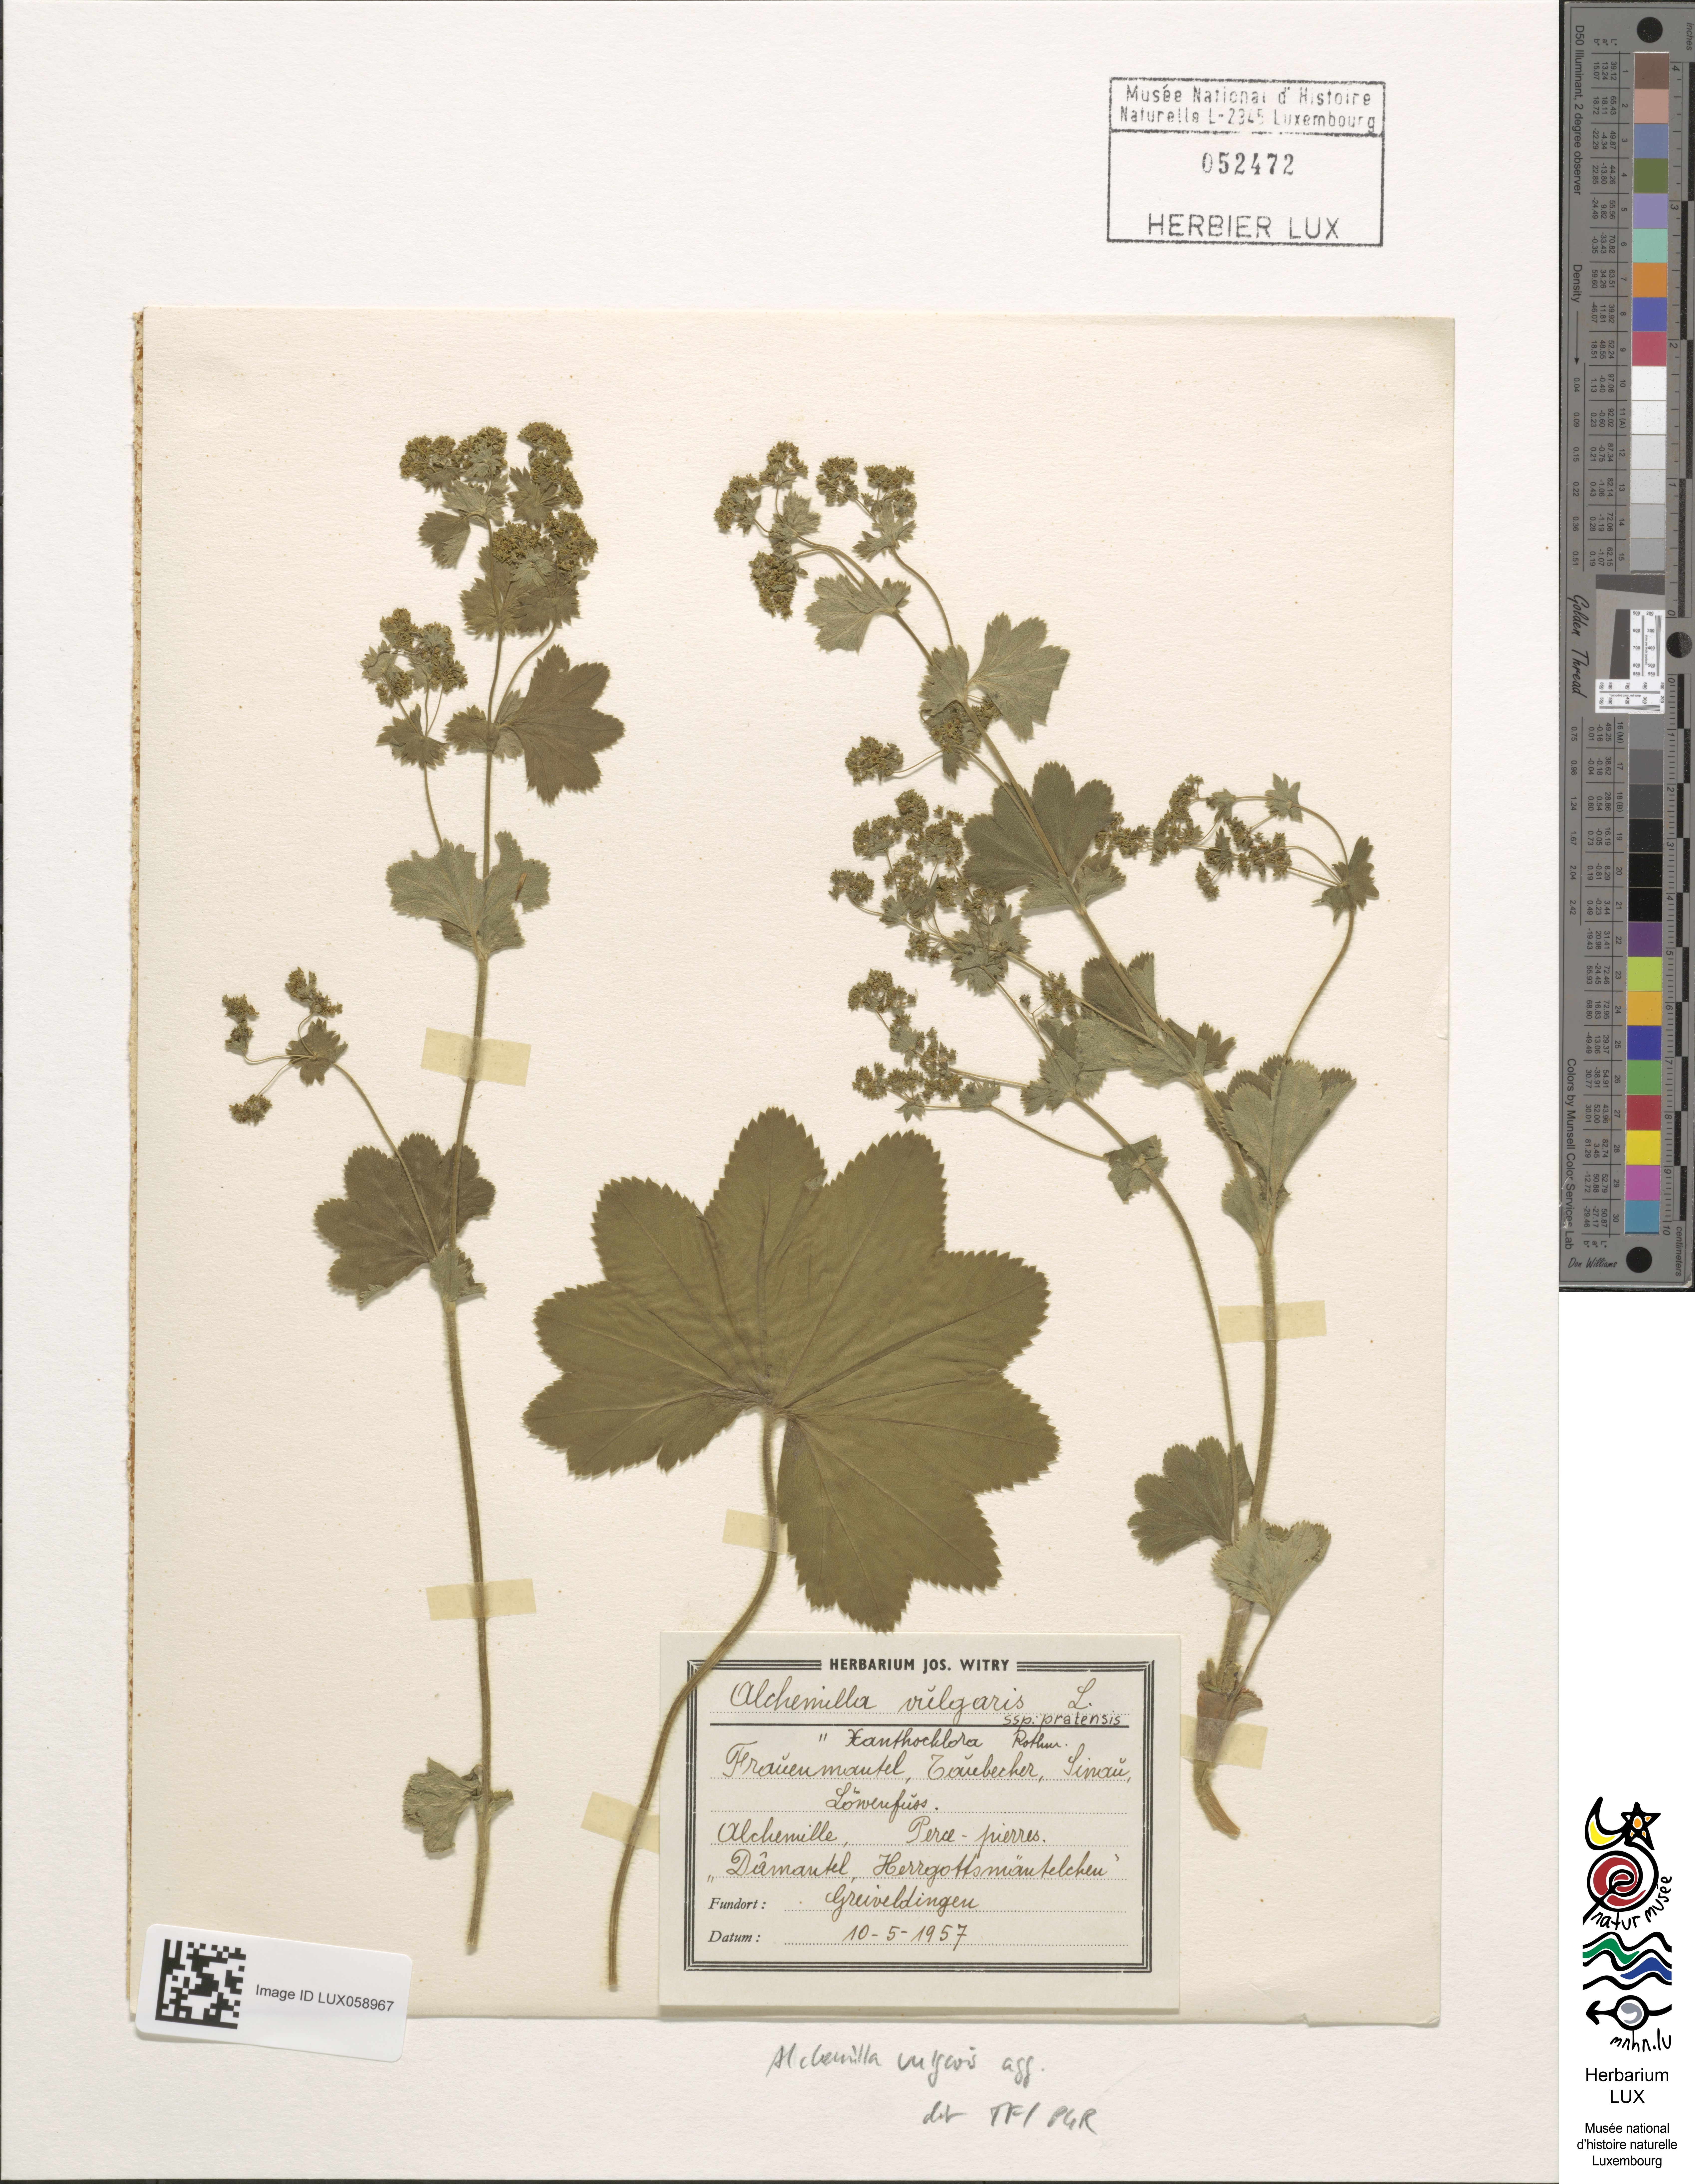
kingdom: Plantae
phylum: Tracheophyta
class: Magnoliopsida
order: Rosales
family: Rosaceae
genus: Alchemilla
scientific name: Alchemilla vulgaris
